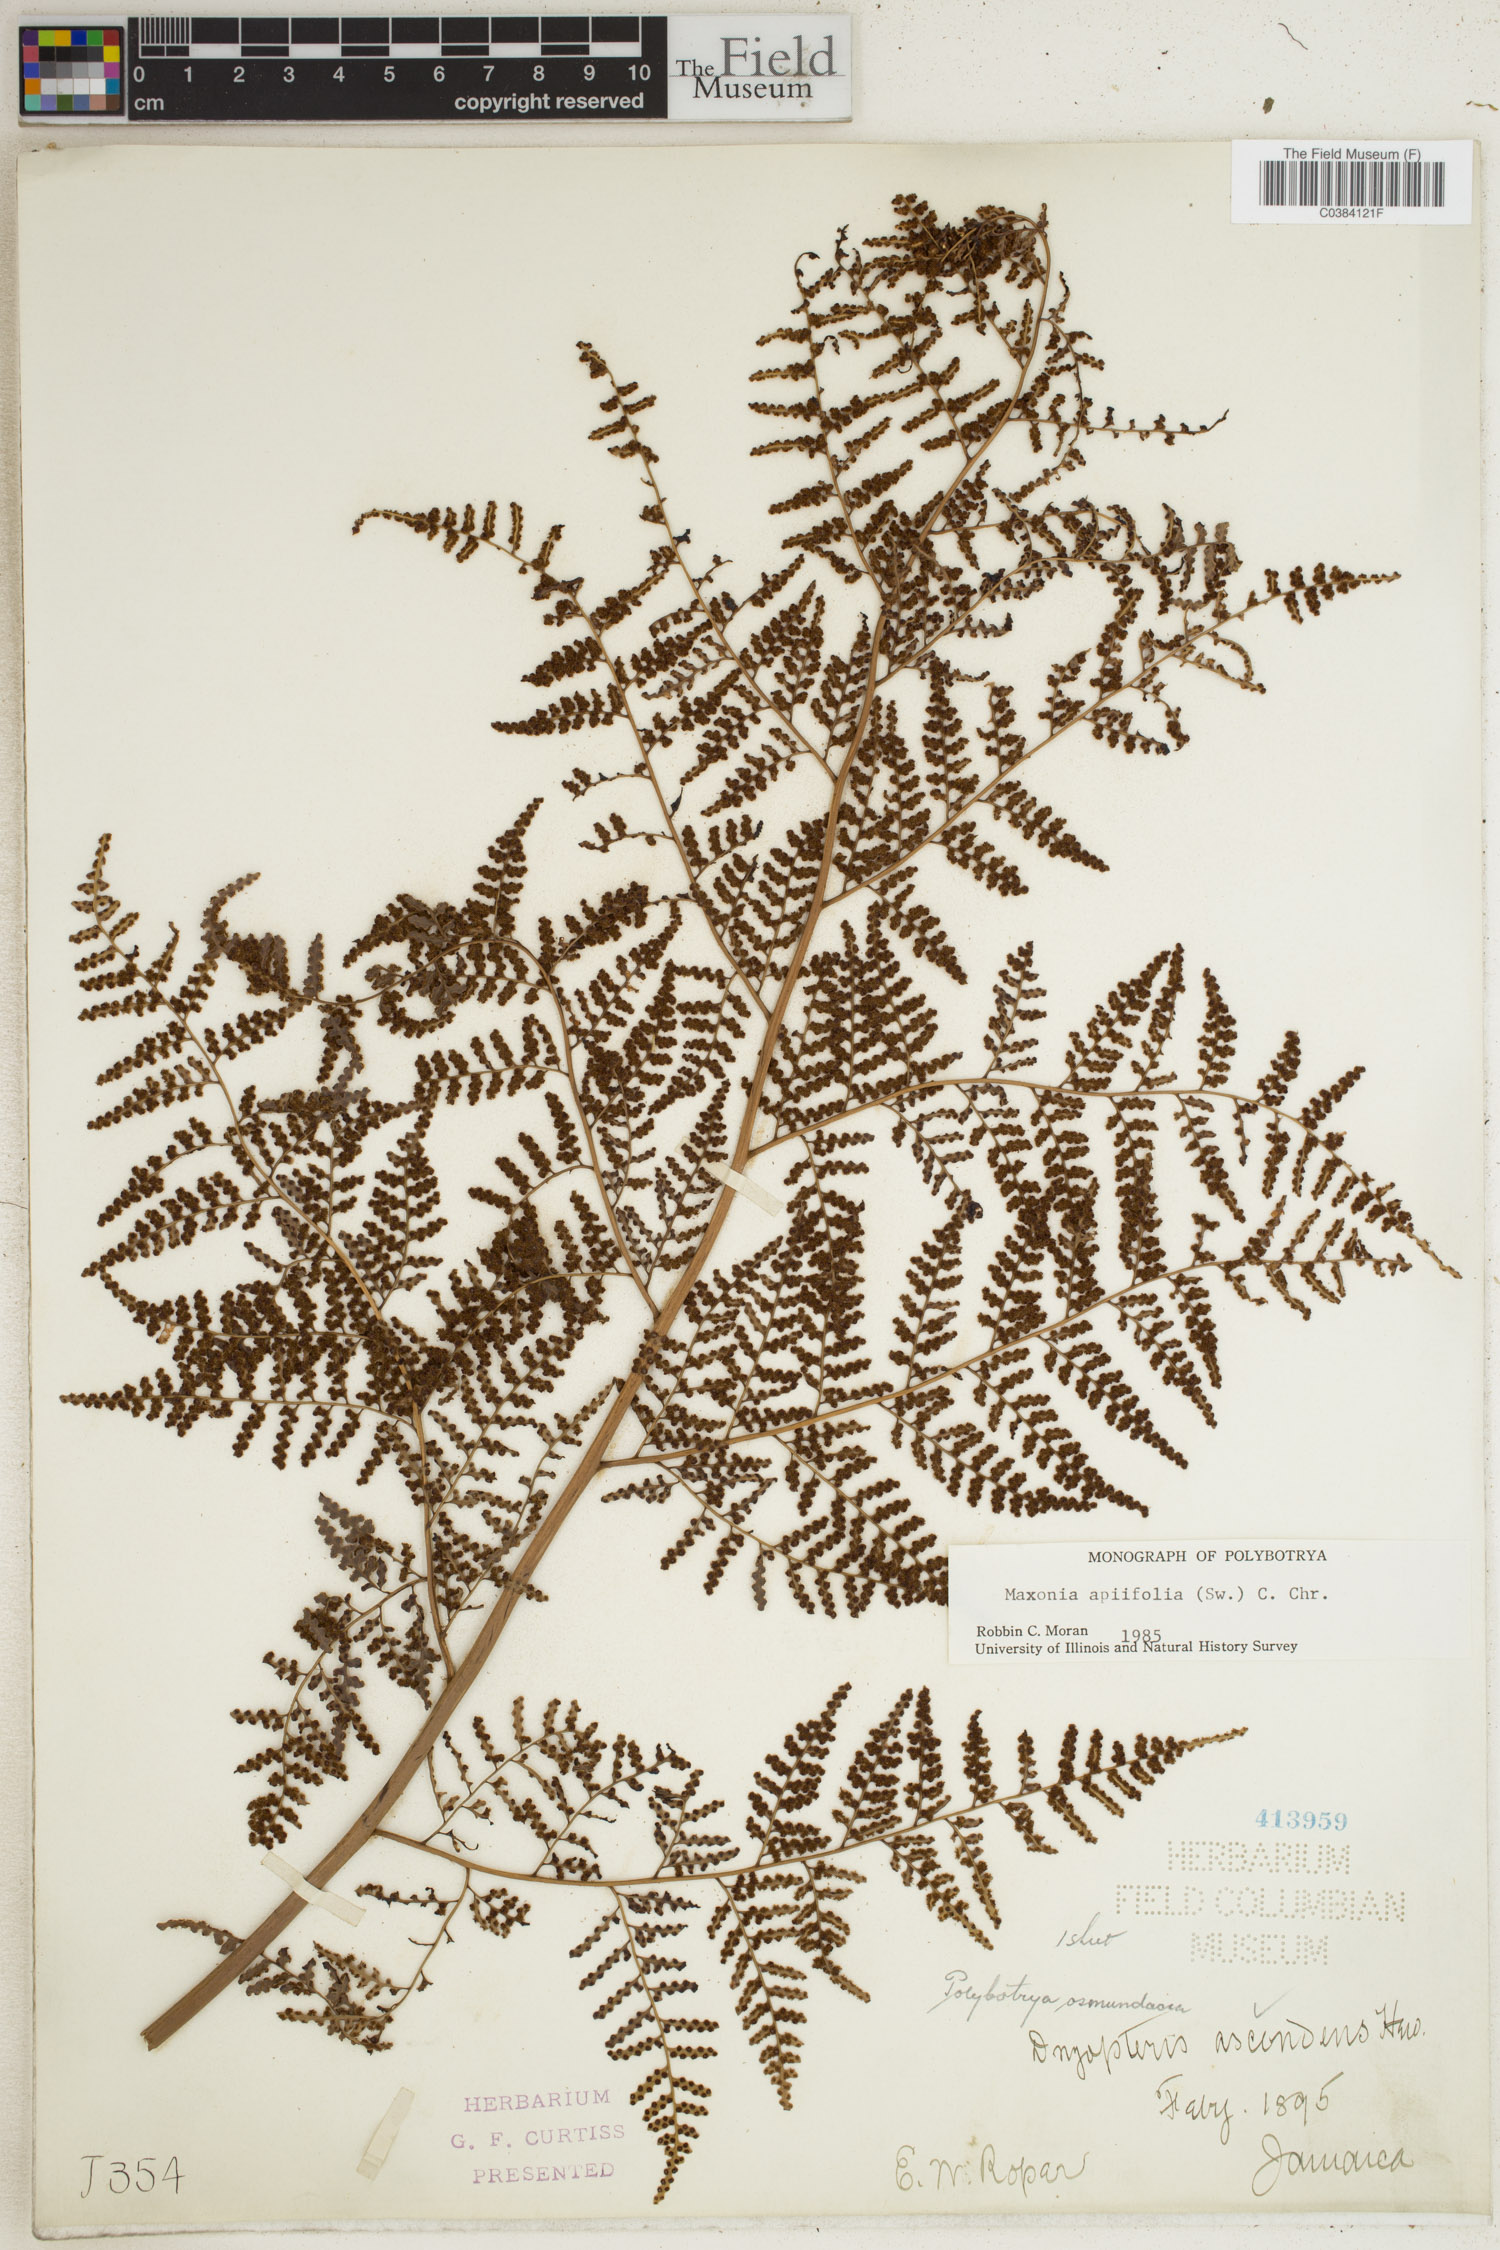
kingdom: Plantae
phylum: Tracheophyta
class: Polypodiopsida
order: Polypodiales
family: Dryopteridaceae
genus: Maxonia
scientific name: Maxonia apiifolia
